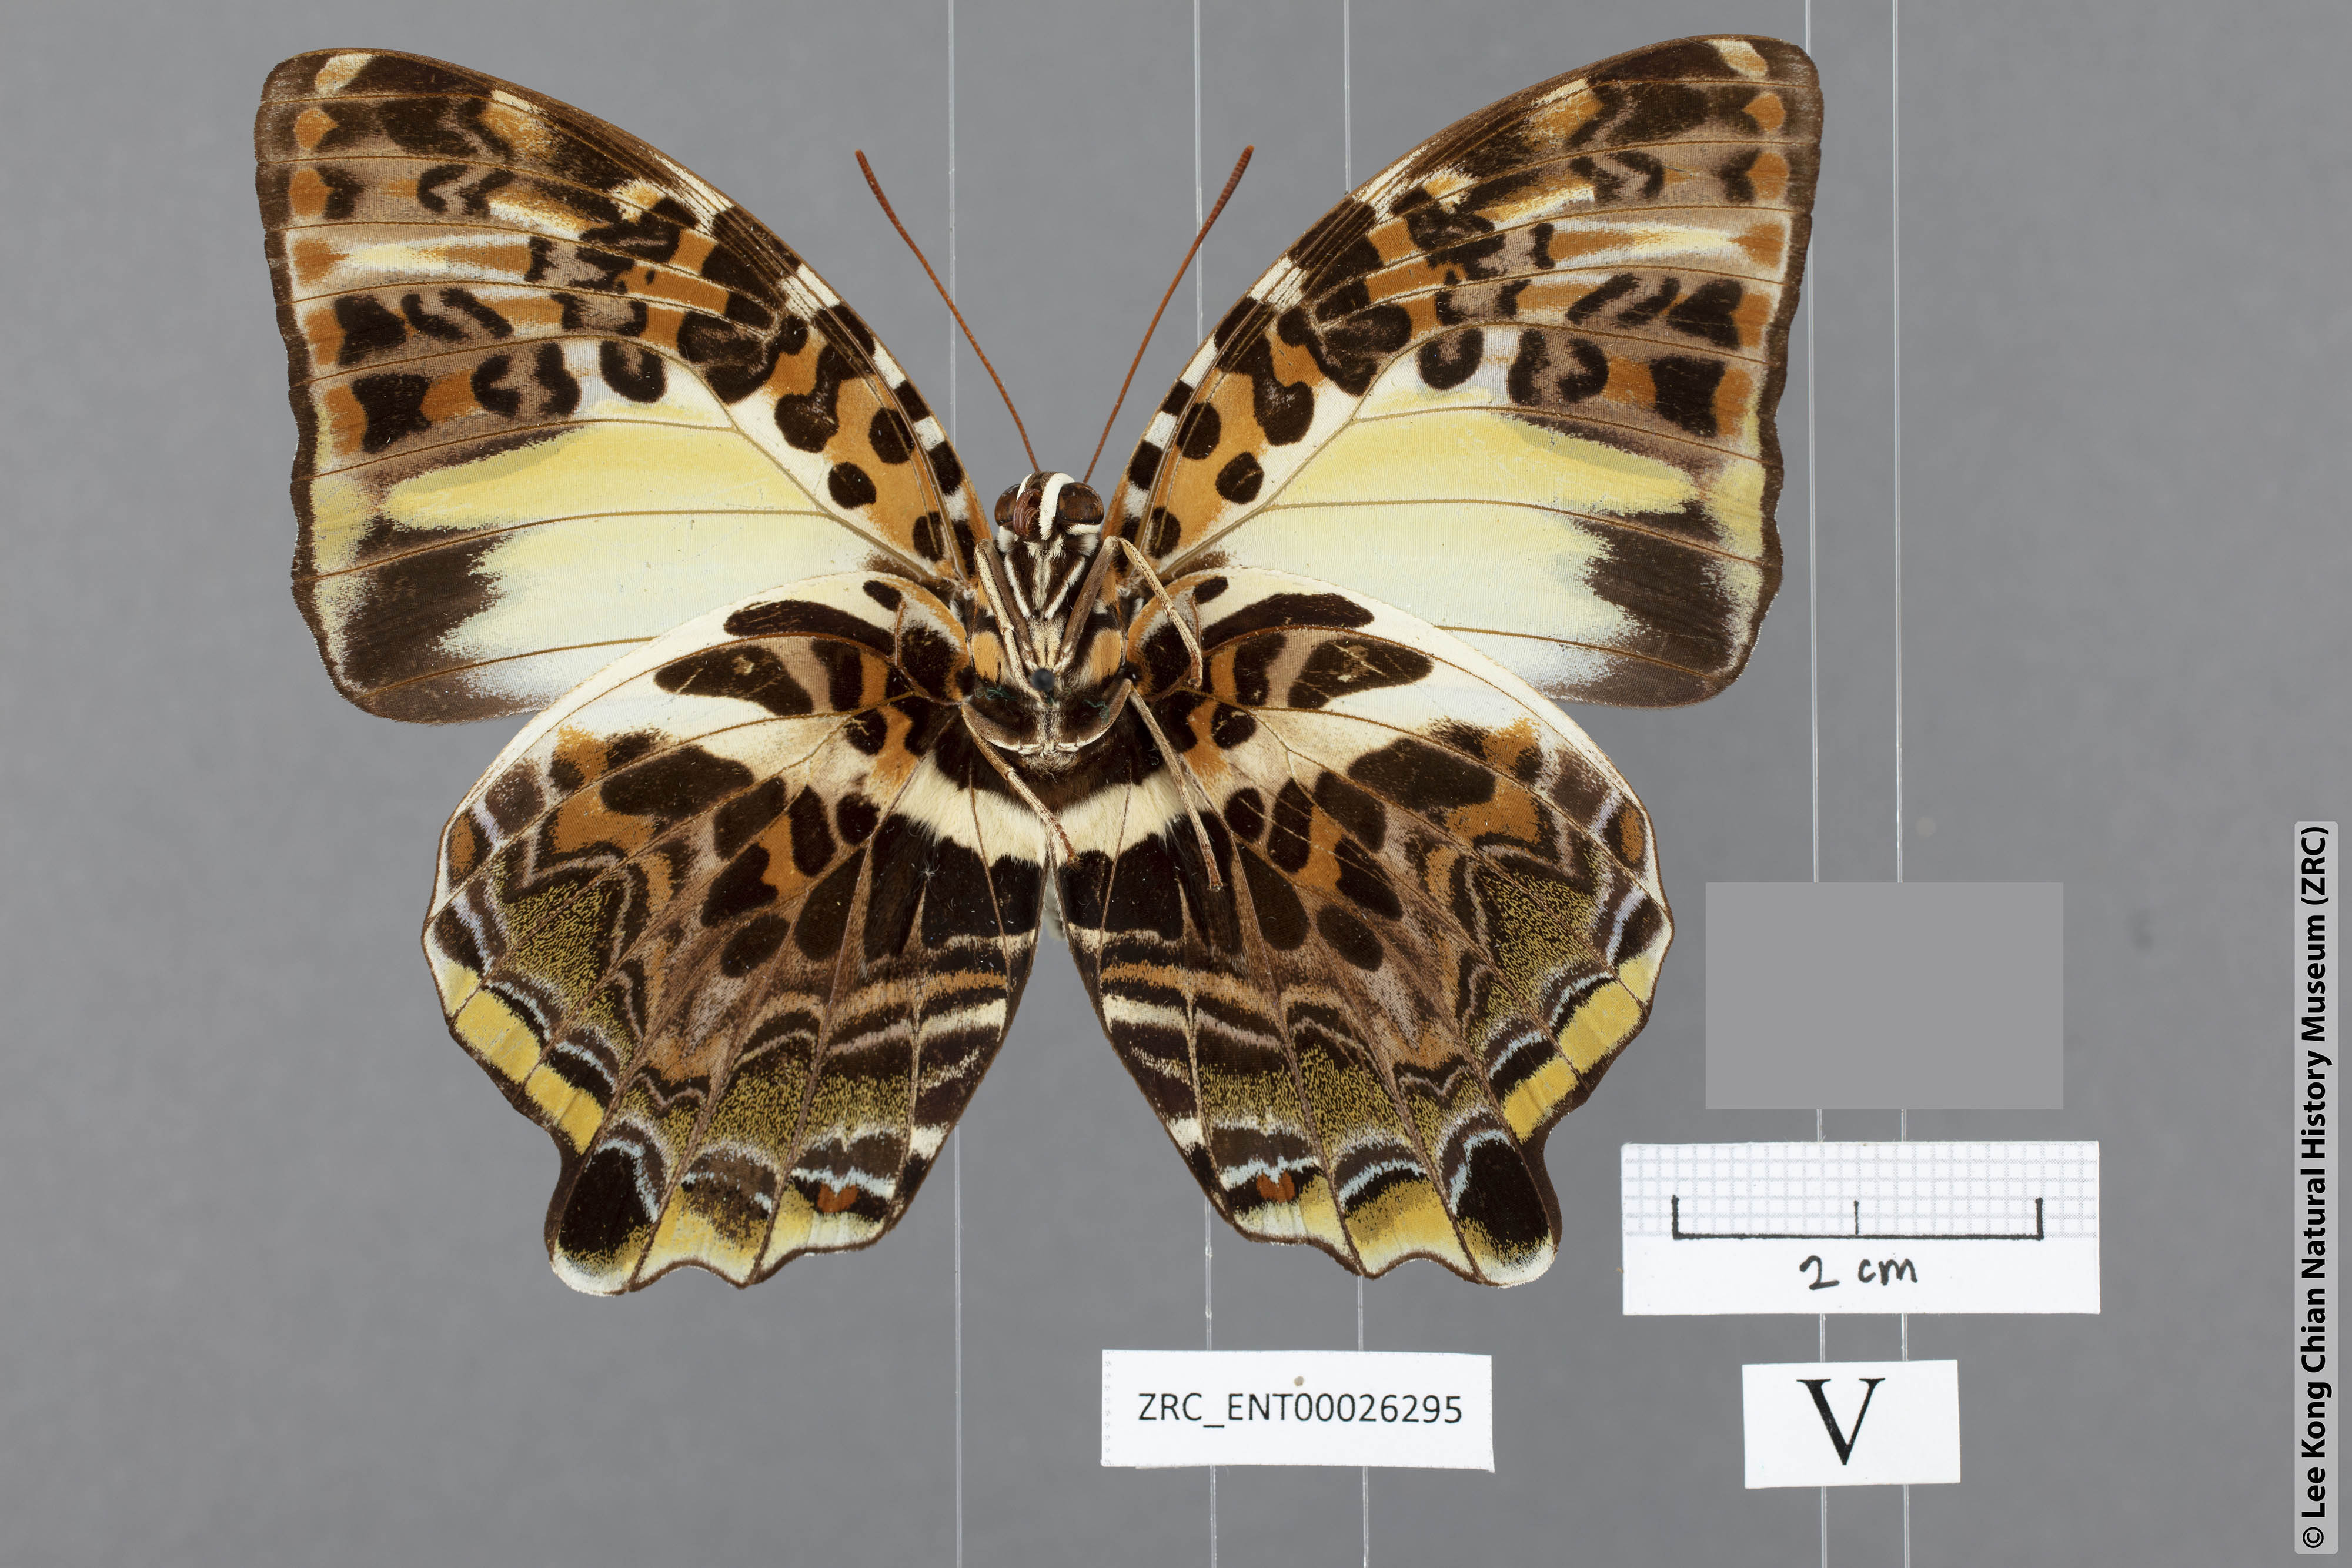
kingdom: Animalia
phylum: Arthropoda
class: Insecta
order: Lepidoptera
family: Nymphalidae
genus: Prothoe
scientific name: Prothoe Agatasa calydonia
